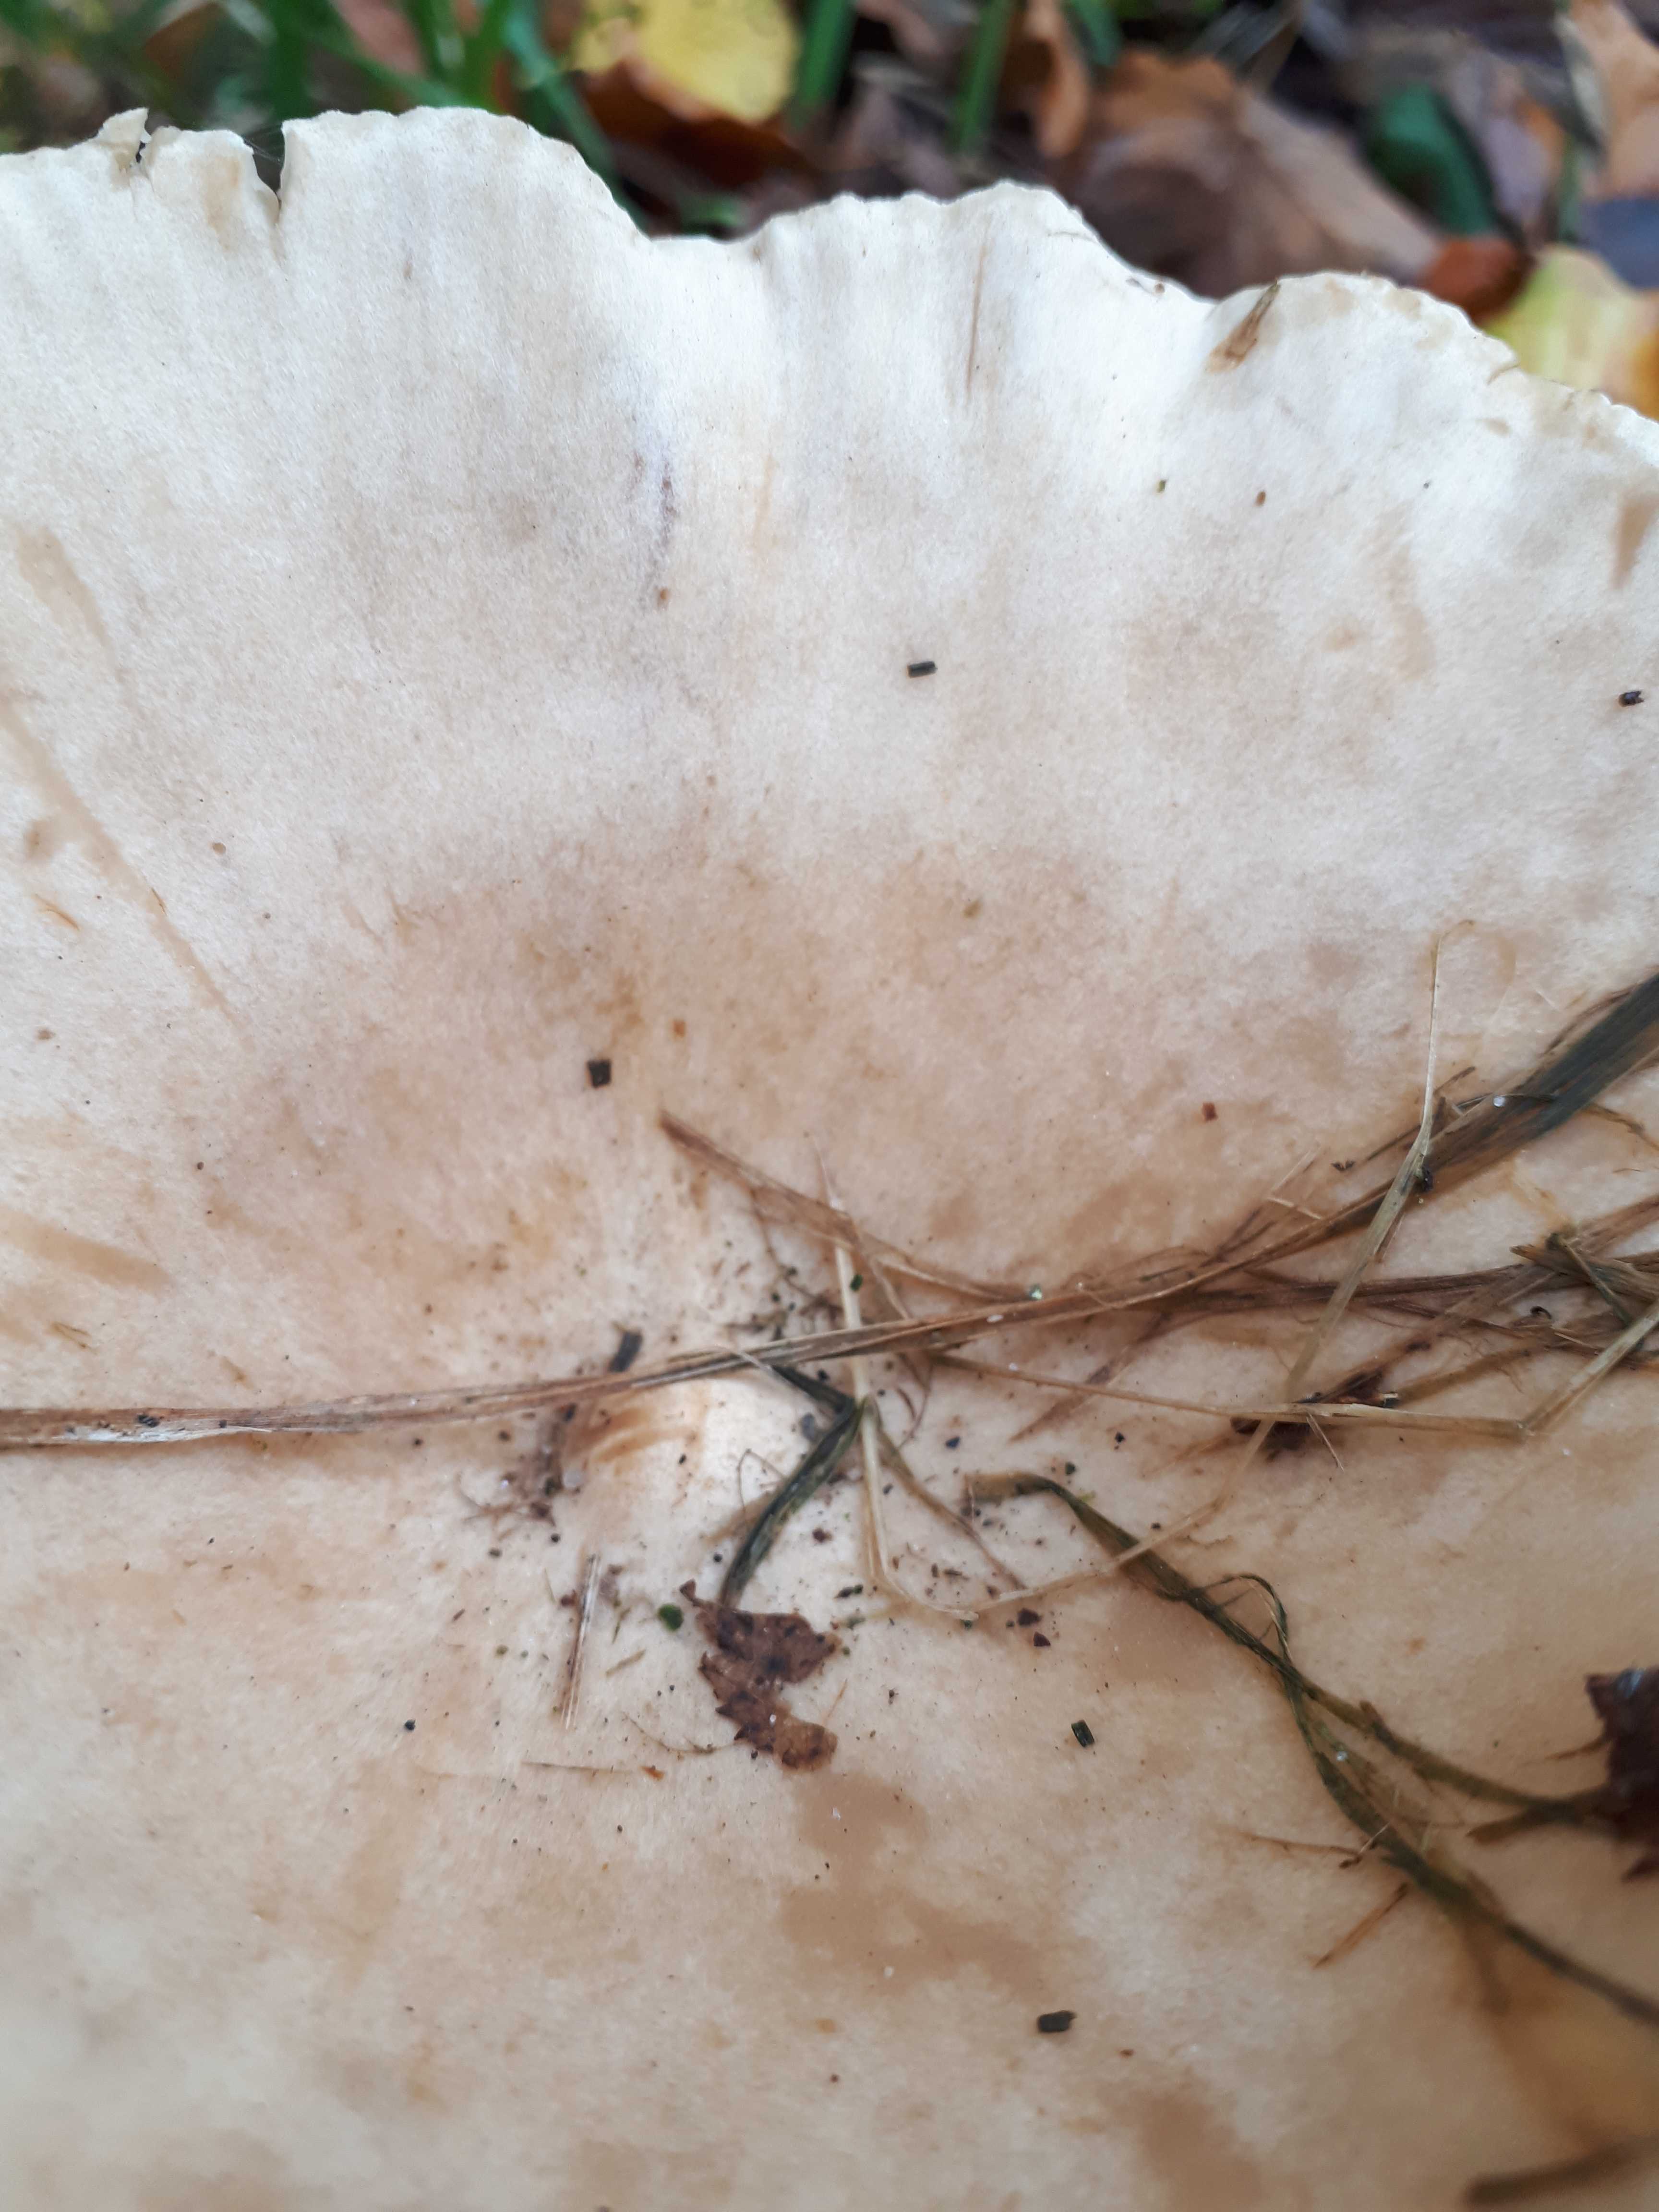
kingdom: Fungi
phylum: Basidiomycota
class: Agaricomycetes
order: Agaricales
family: Tricholomataceae
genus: Infundibulicybe
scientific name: Infundibulicybe geotropa
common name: stor tragthat
